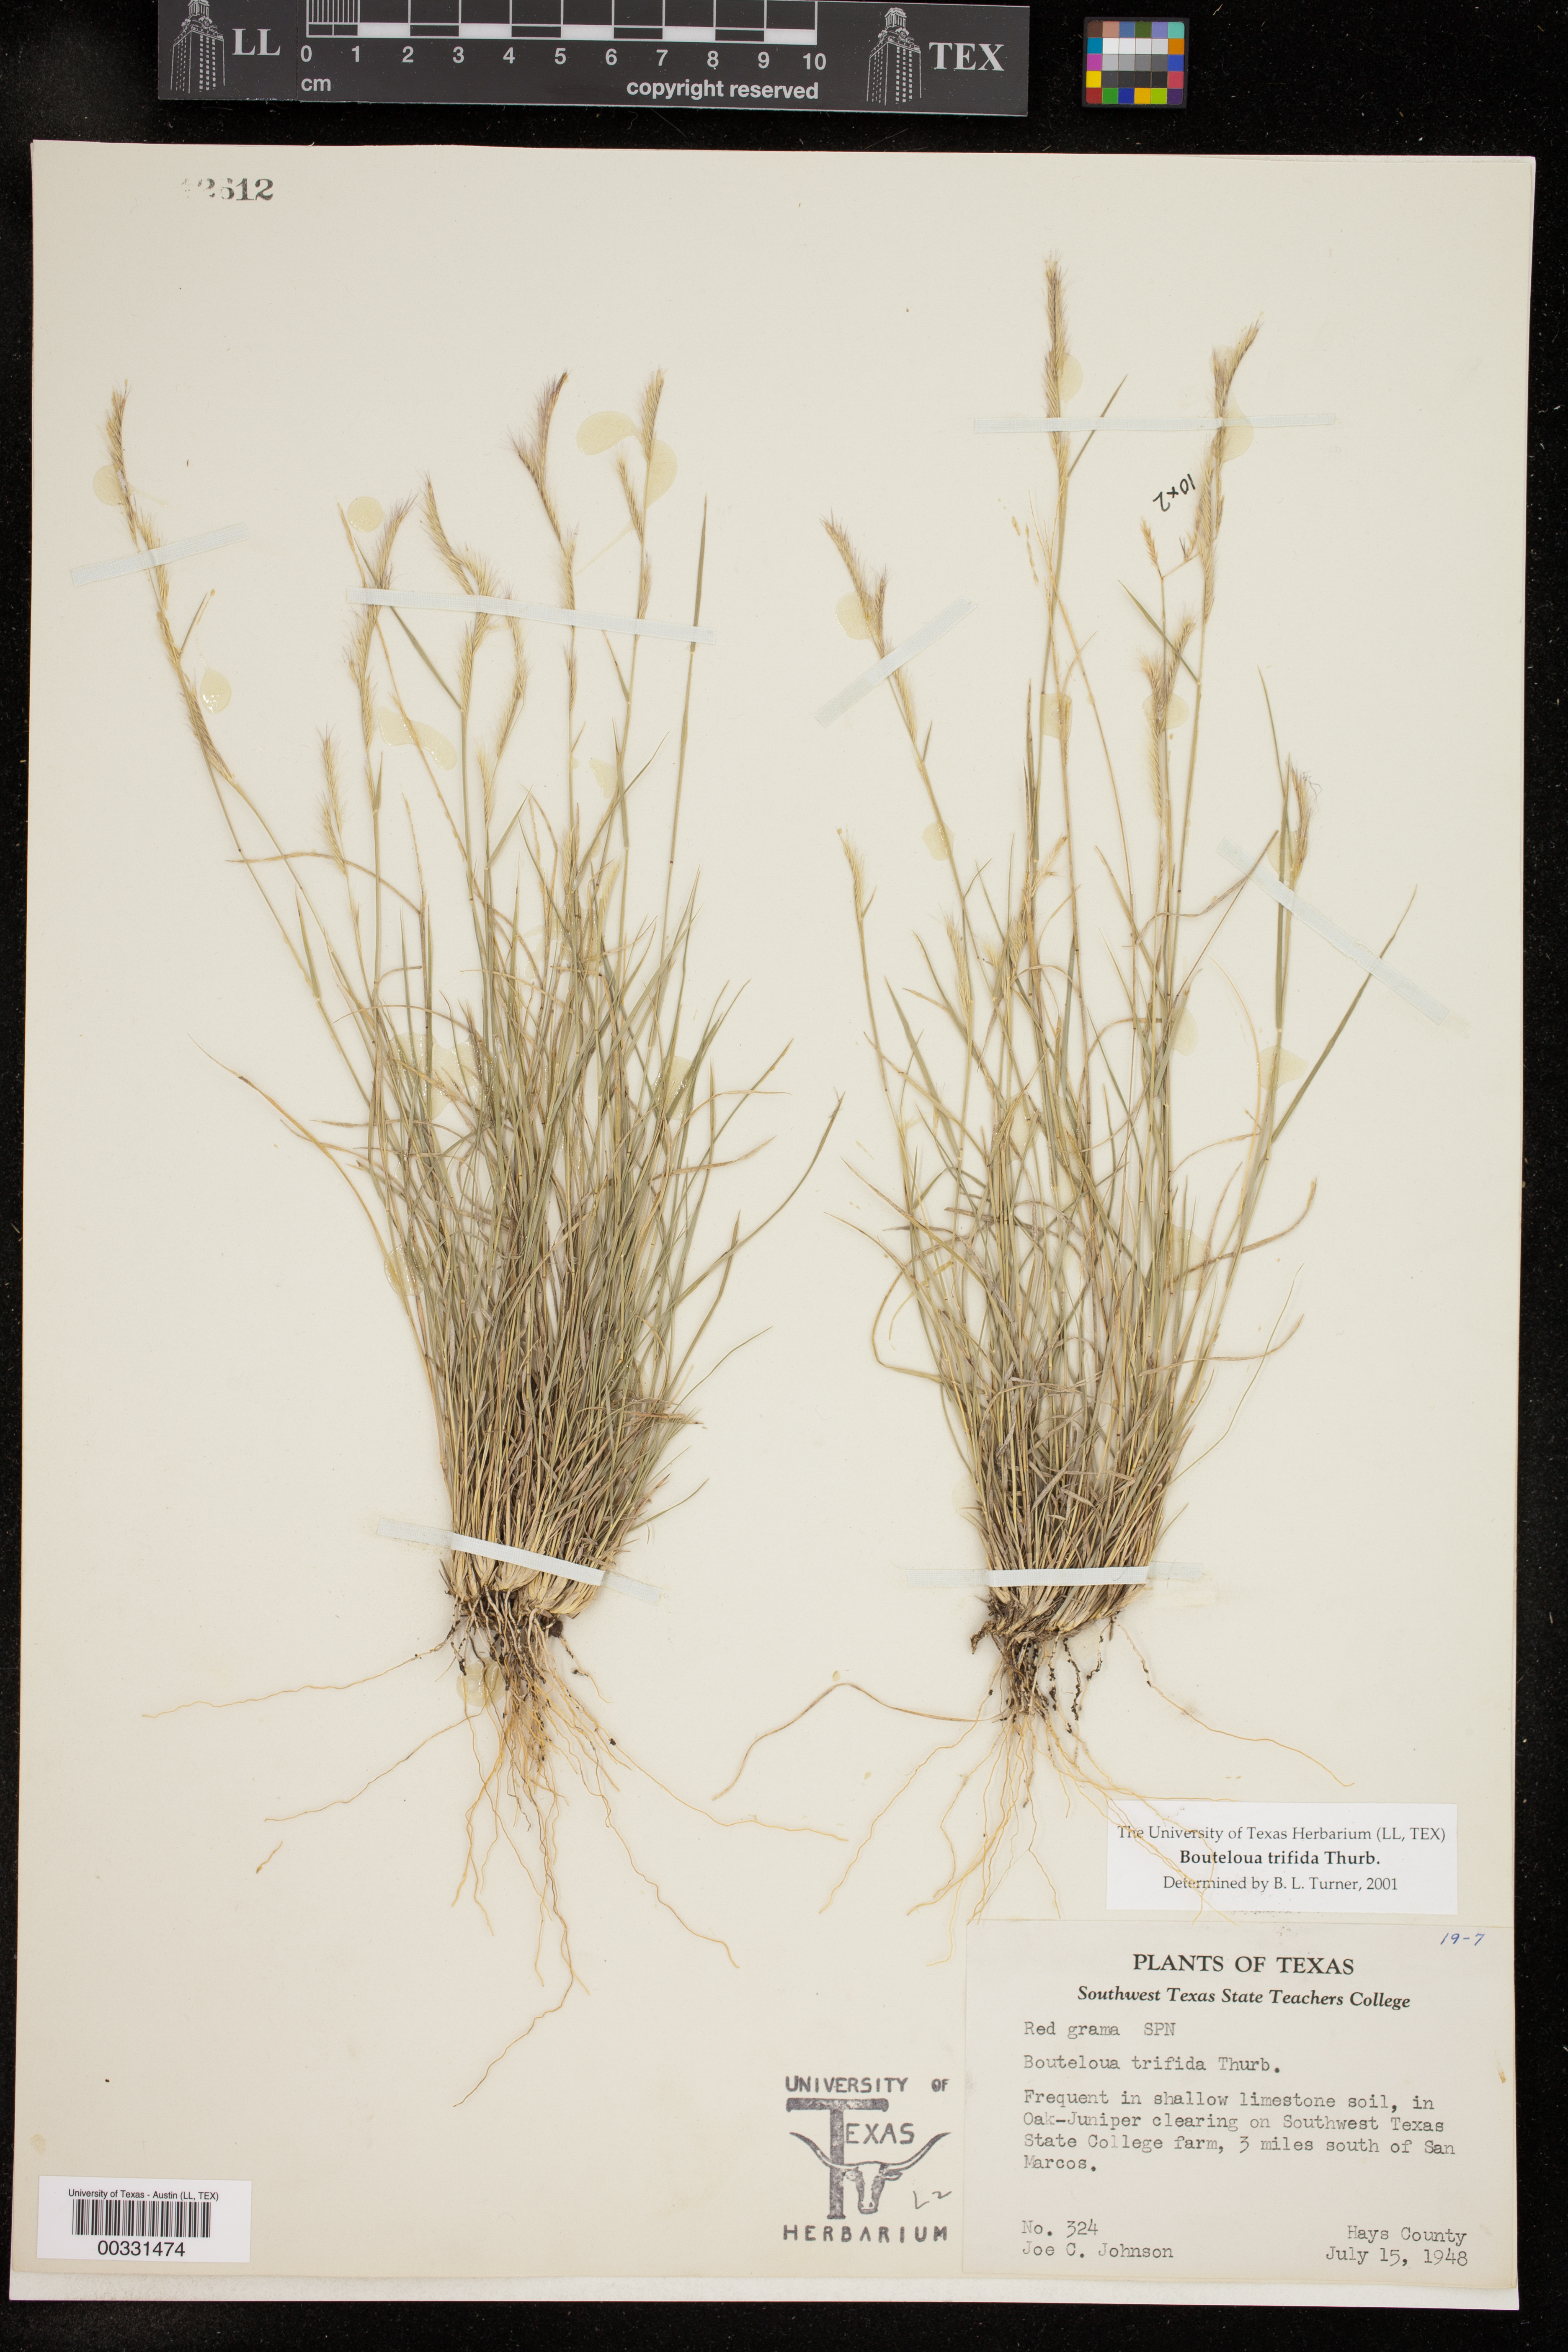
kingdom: Plantae
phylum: Tracheophyta
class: Liliopsida
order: Poales
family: Poaceae
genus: Bouteloua
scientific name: Bouteloua trifida
